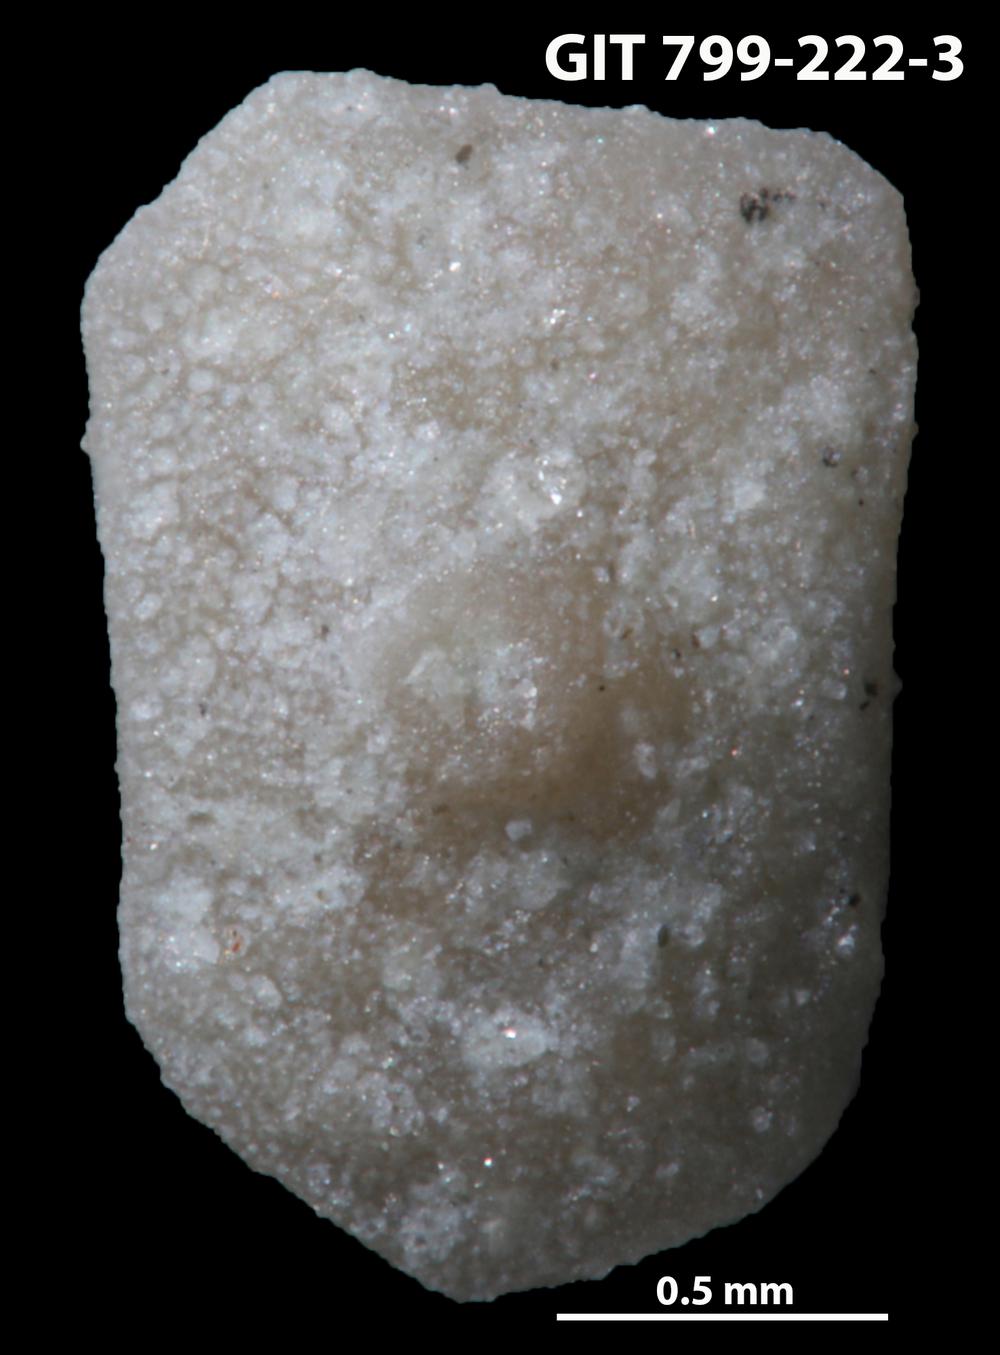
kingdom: Animalia
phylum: Echinodermata
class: Echinoidea
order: Bothriocidaroida
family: Bothriocidaridae
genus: Bothriocidaris
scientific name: Bothriocidaris
